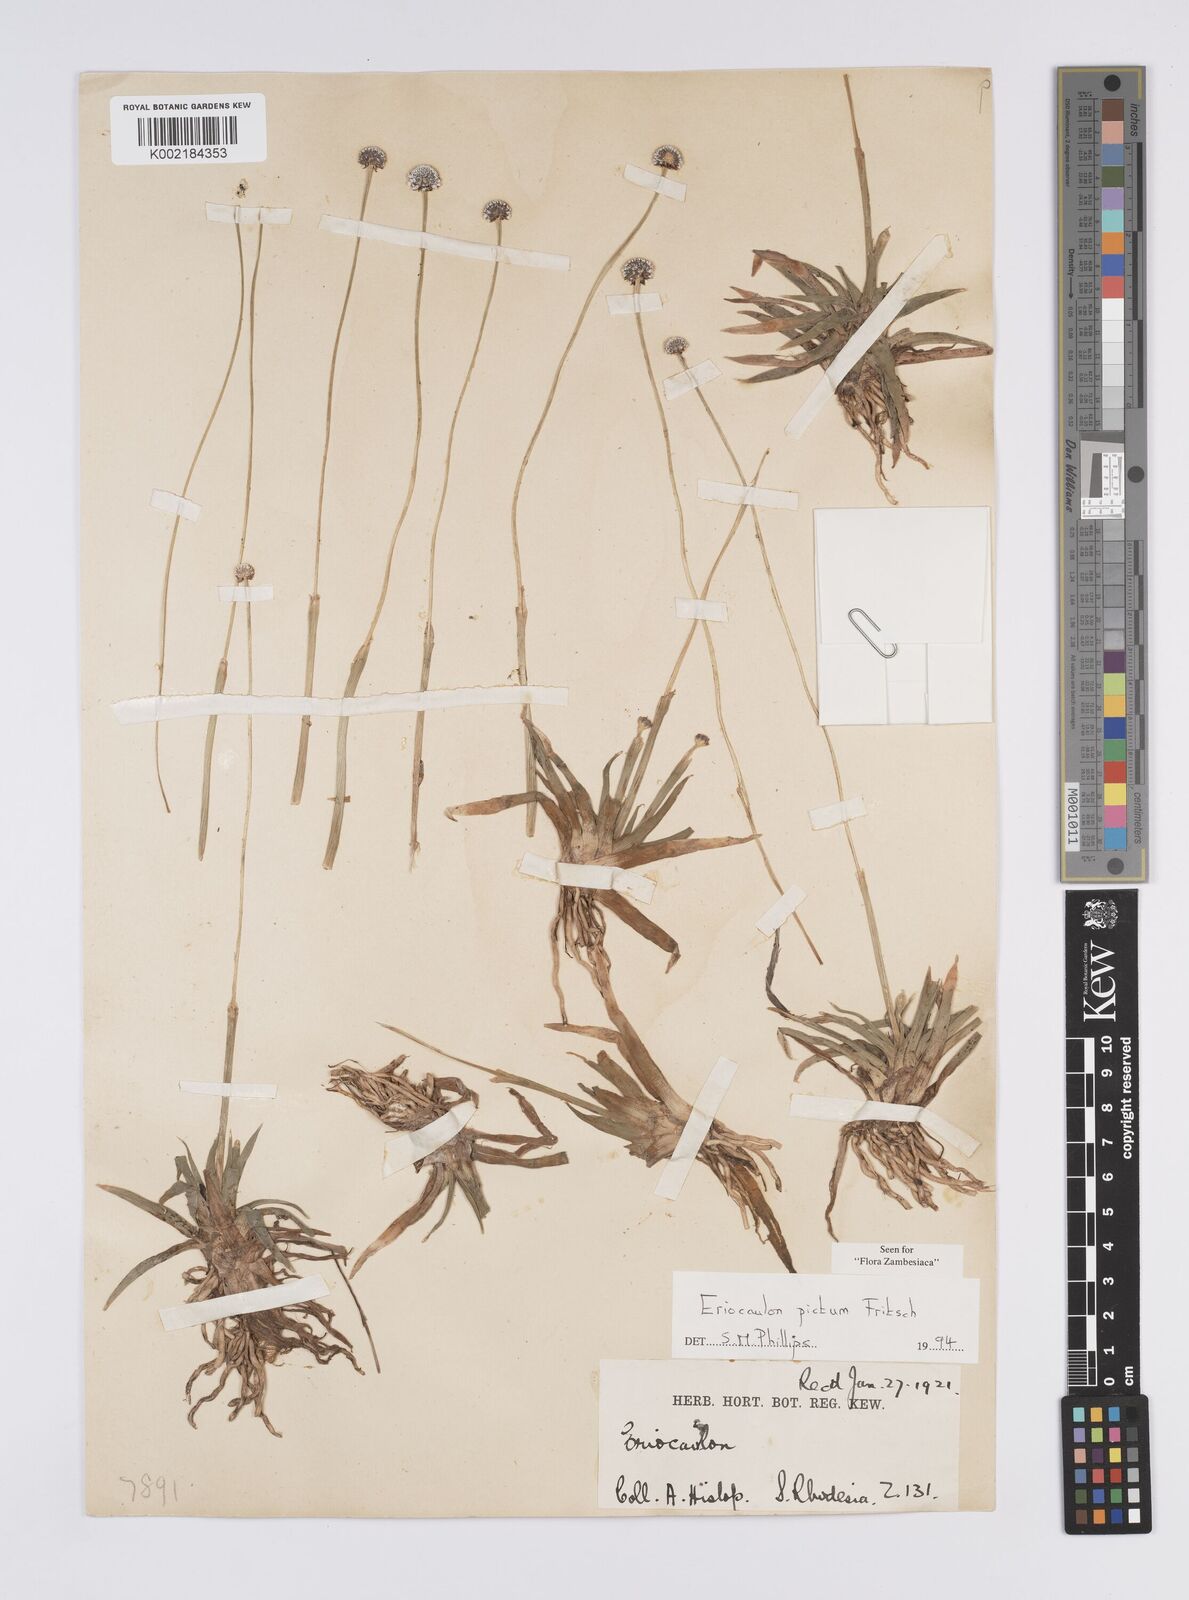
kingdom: Plantae
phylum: Tracheophyta
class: Liliopsida
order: Poales
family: Eriocaulaceae
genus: Eriocaulon
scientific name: Eriocaulon pictum
